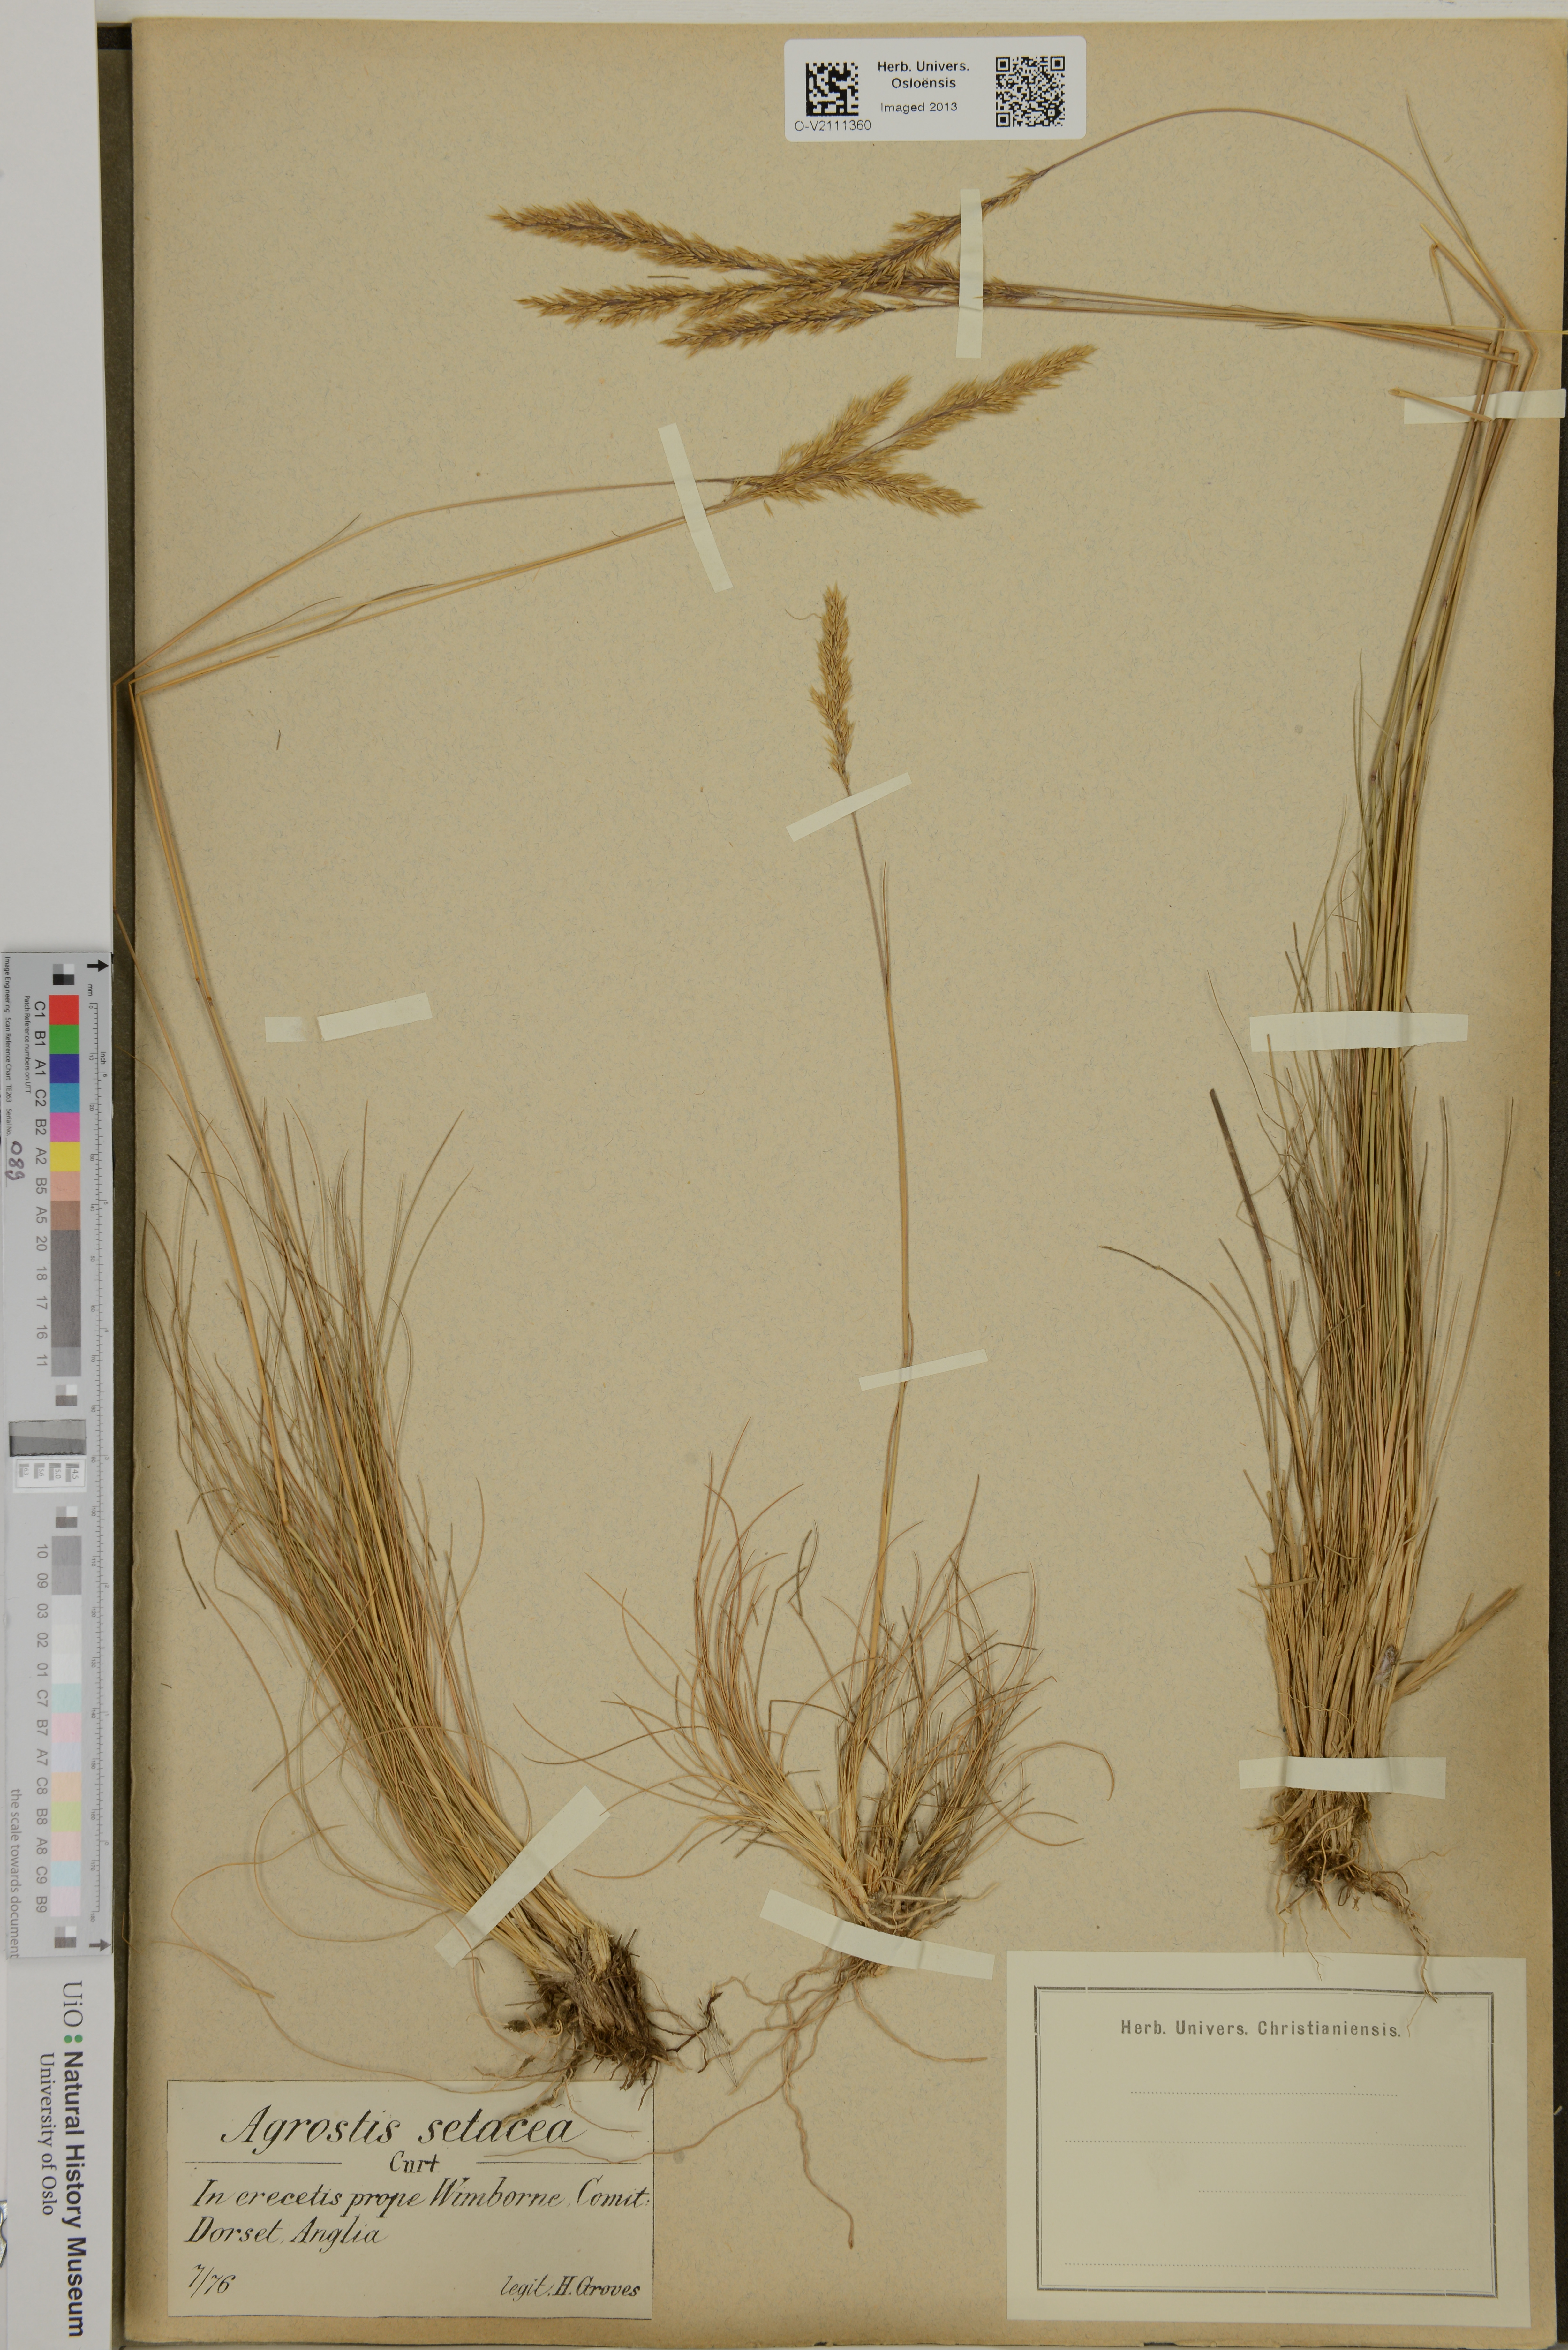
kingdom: Plantae
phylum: Tracheophyta
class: Liliopsida
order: Poales
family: Poaceae
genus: Agrostis
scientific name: Agrostis rupestris
